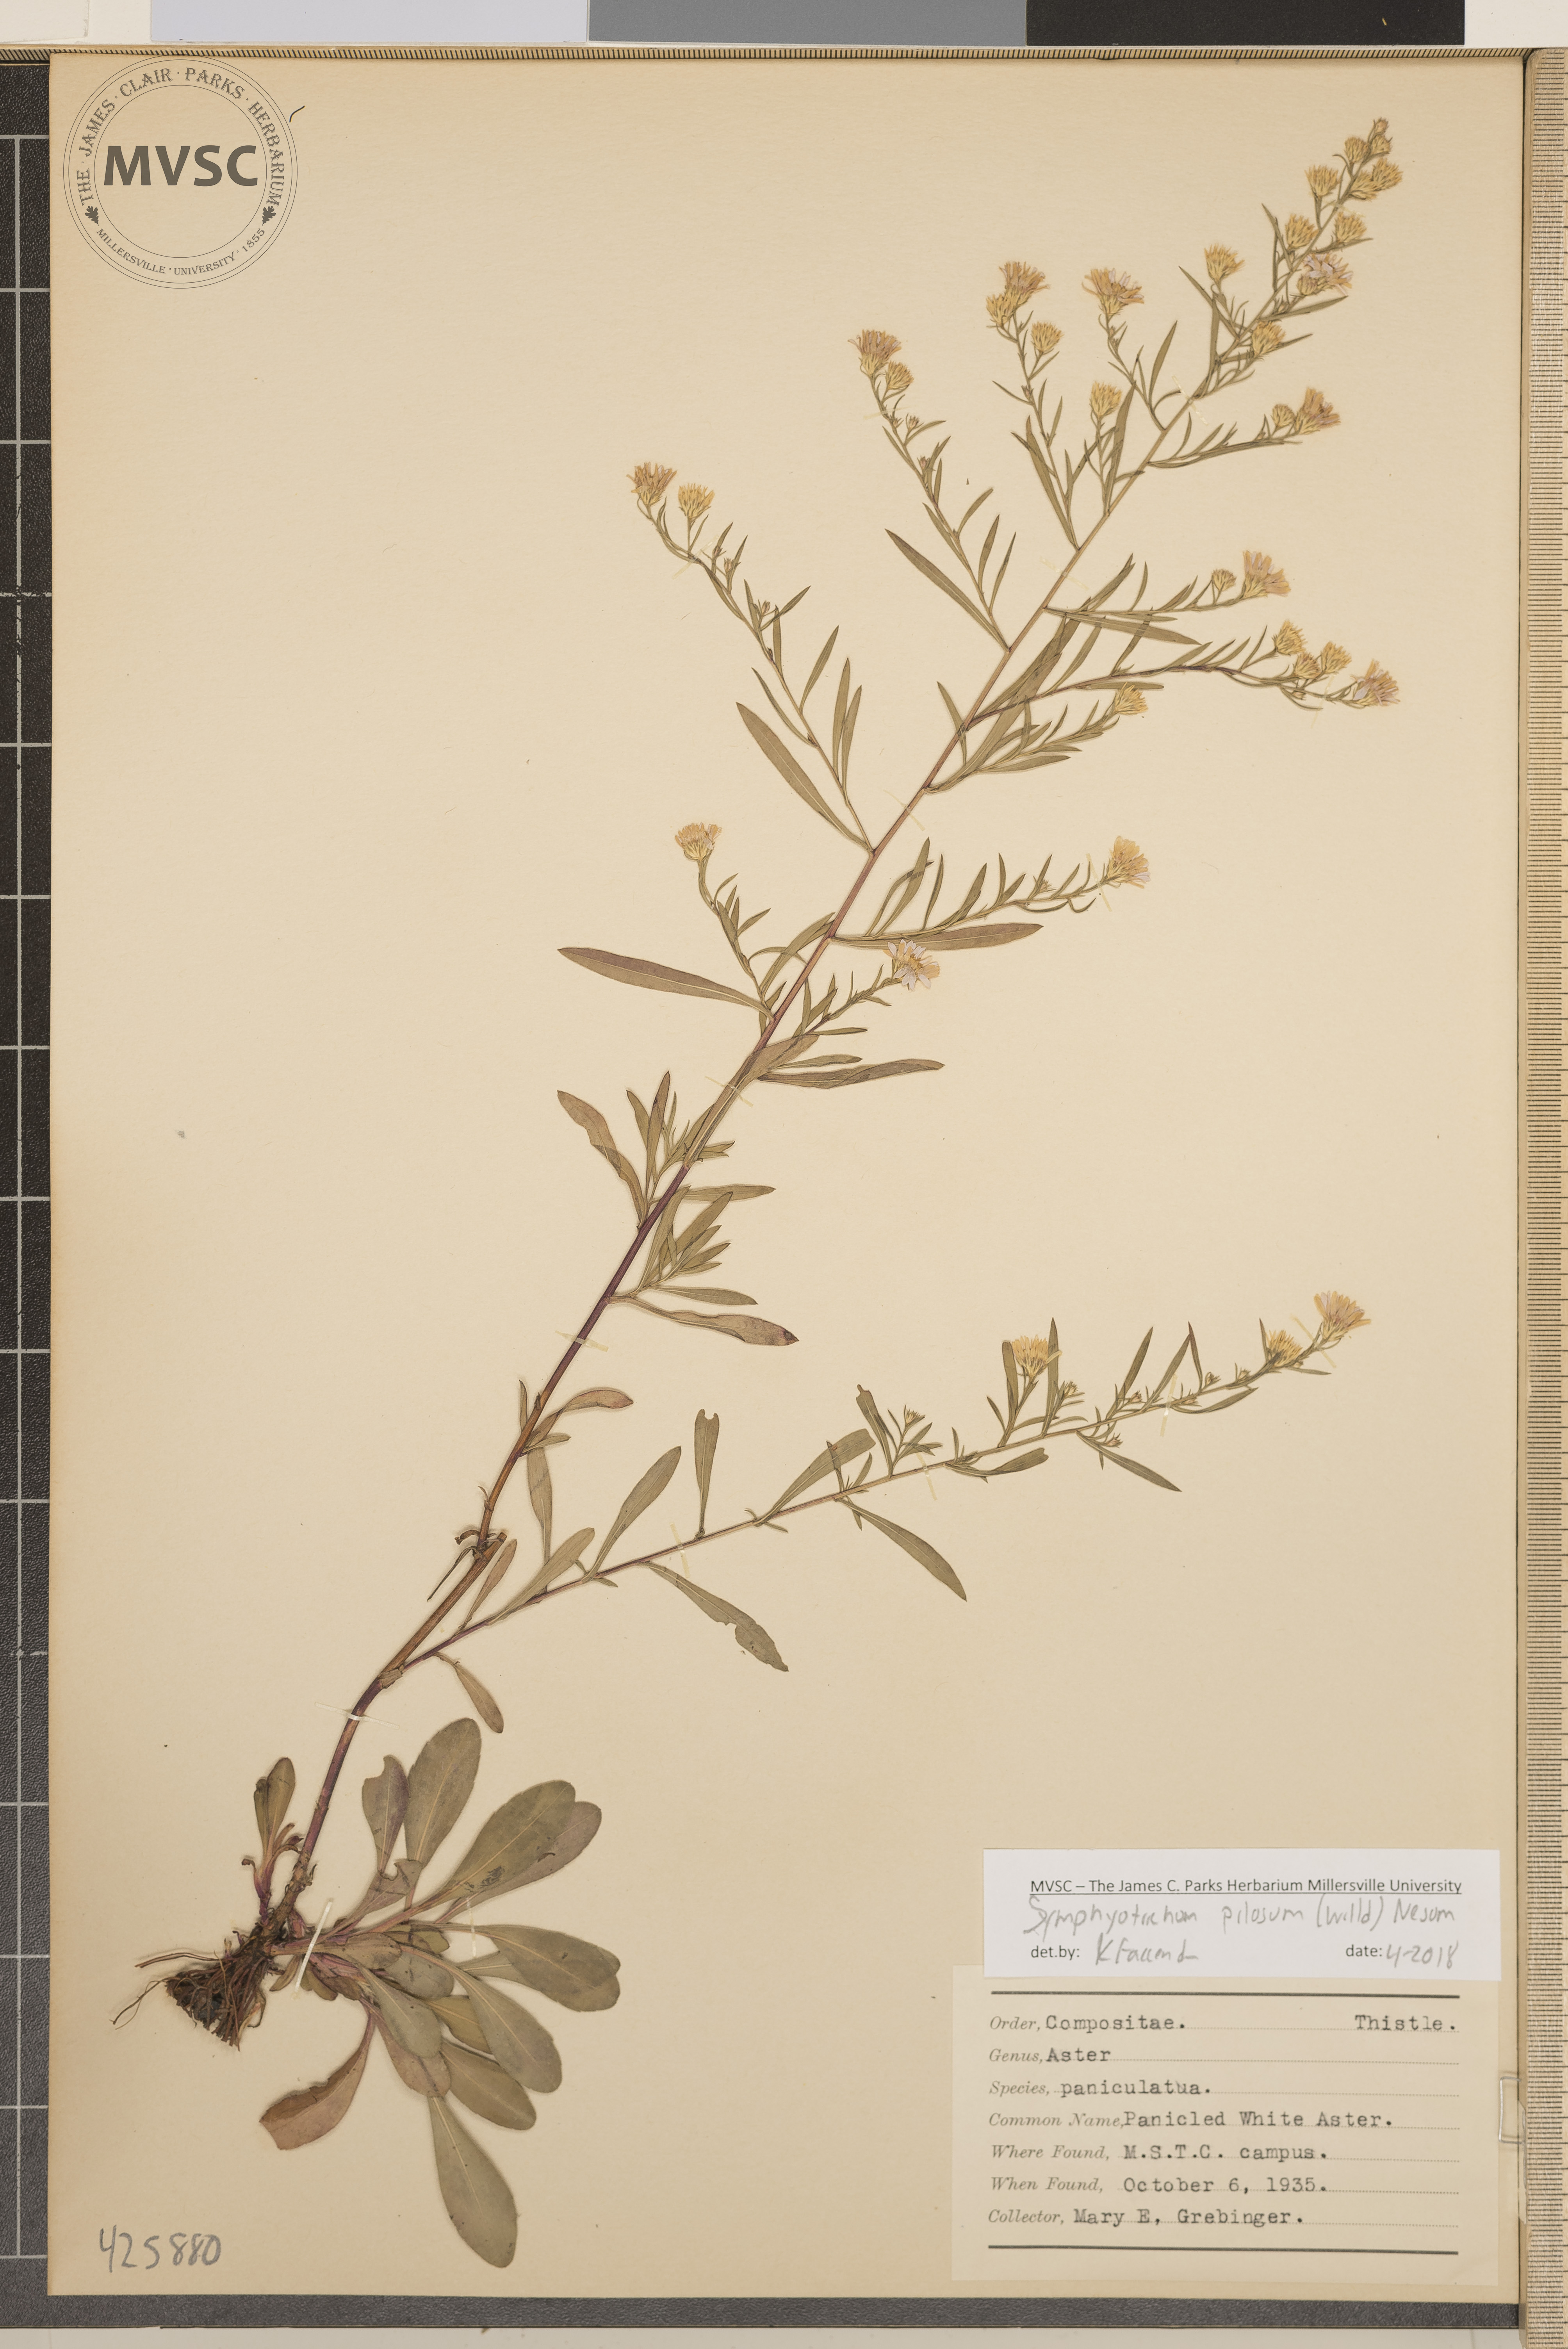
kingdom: Plantae
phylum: Tracheophyta
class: Magnoliopsida
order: Asterales
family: Asteraceae
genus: Symphyotrichum
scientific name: Symphyotrichum pilosum
